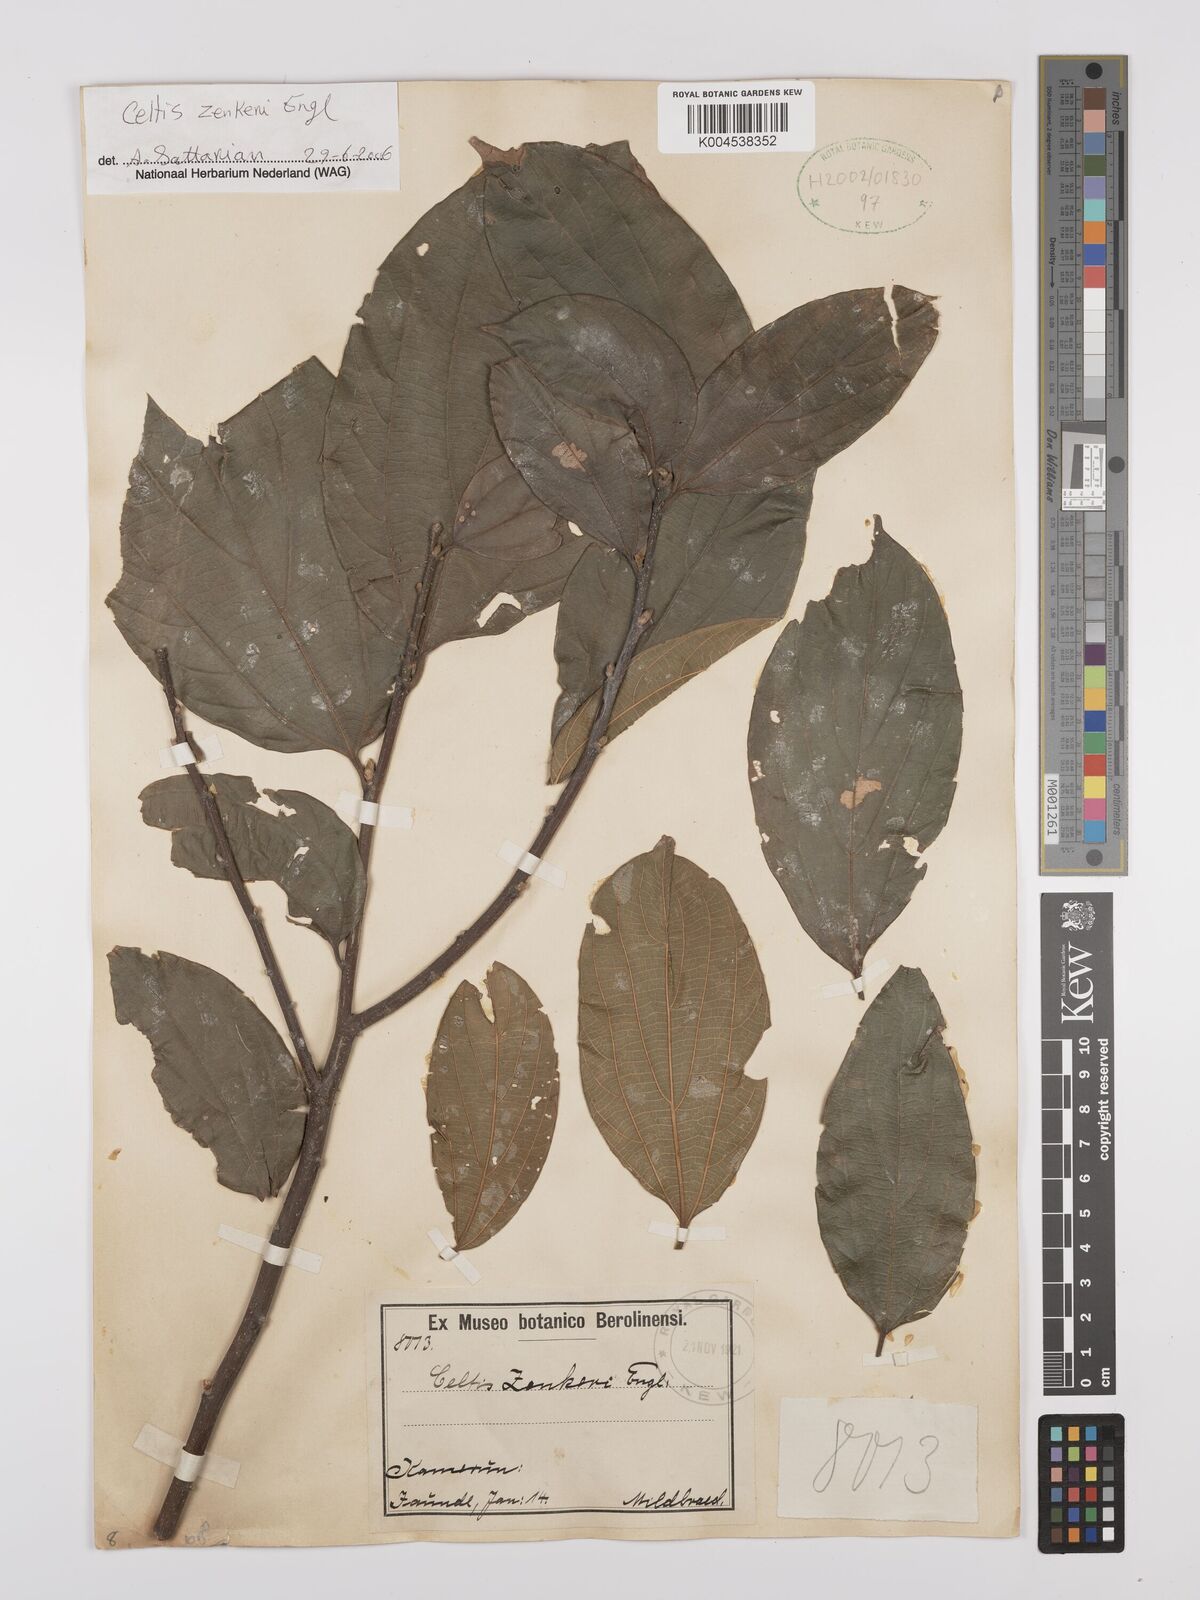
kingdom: Plantae
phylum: Tracheophyta
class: Magnoliopsida
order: Rosales
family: Cannabaceae
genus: Celtis
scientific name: Celtis zenkeri
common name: African celtis
